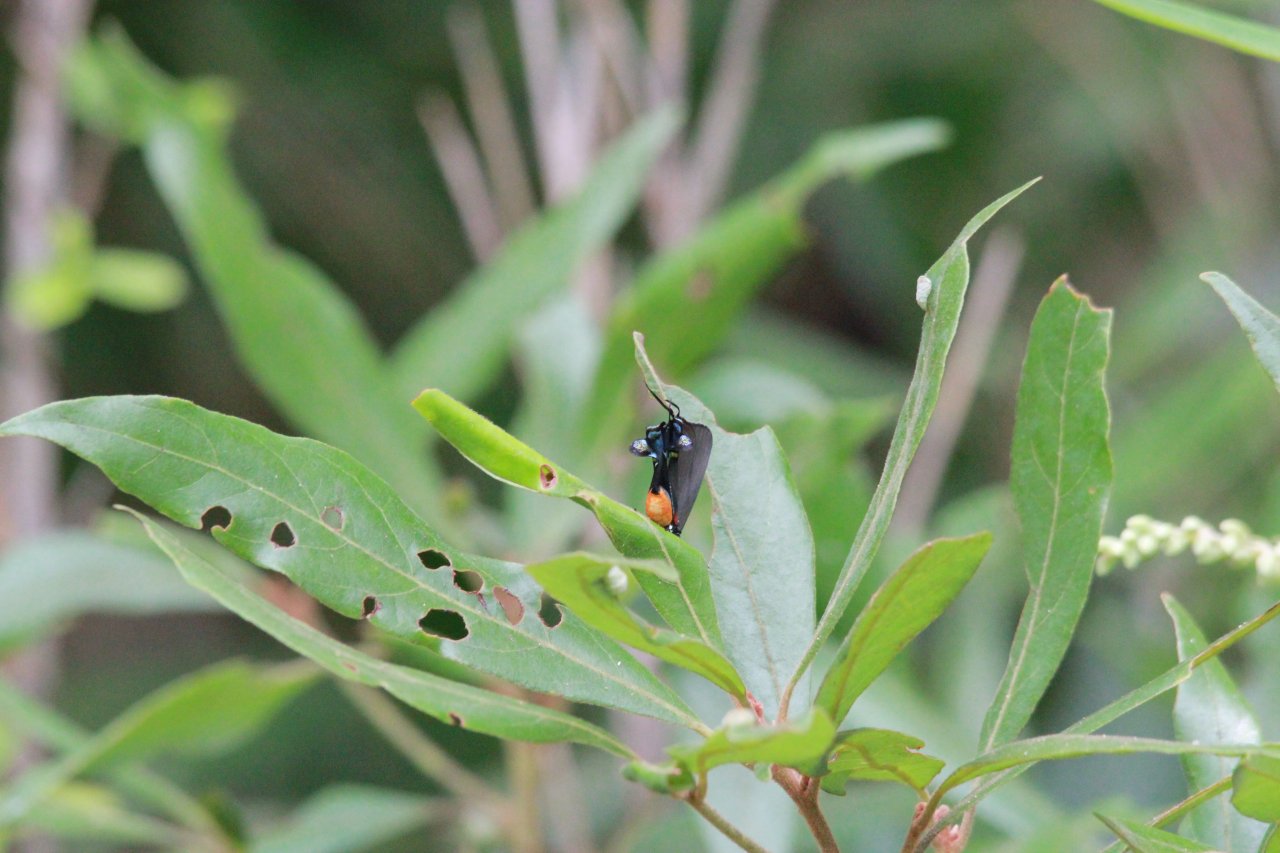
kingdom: Animalia
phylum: Arthropoda
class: Insecta
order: Lepidoptera
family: Lycaenidae
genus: Atlides
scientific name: Atlides halesus
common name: Great Purple Hairstreak
